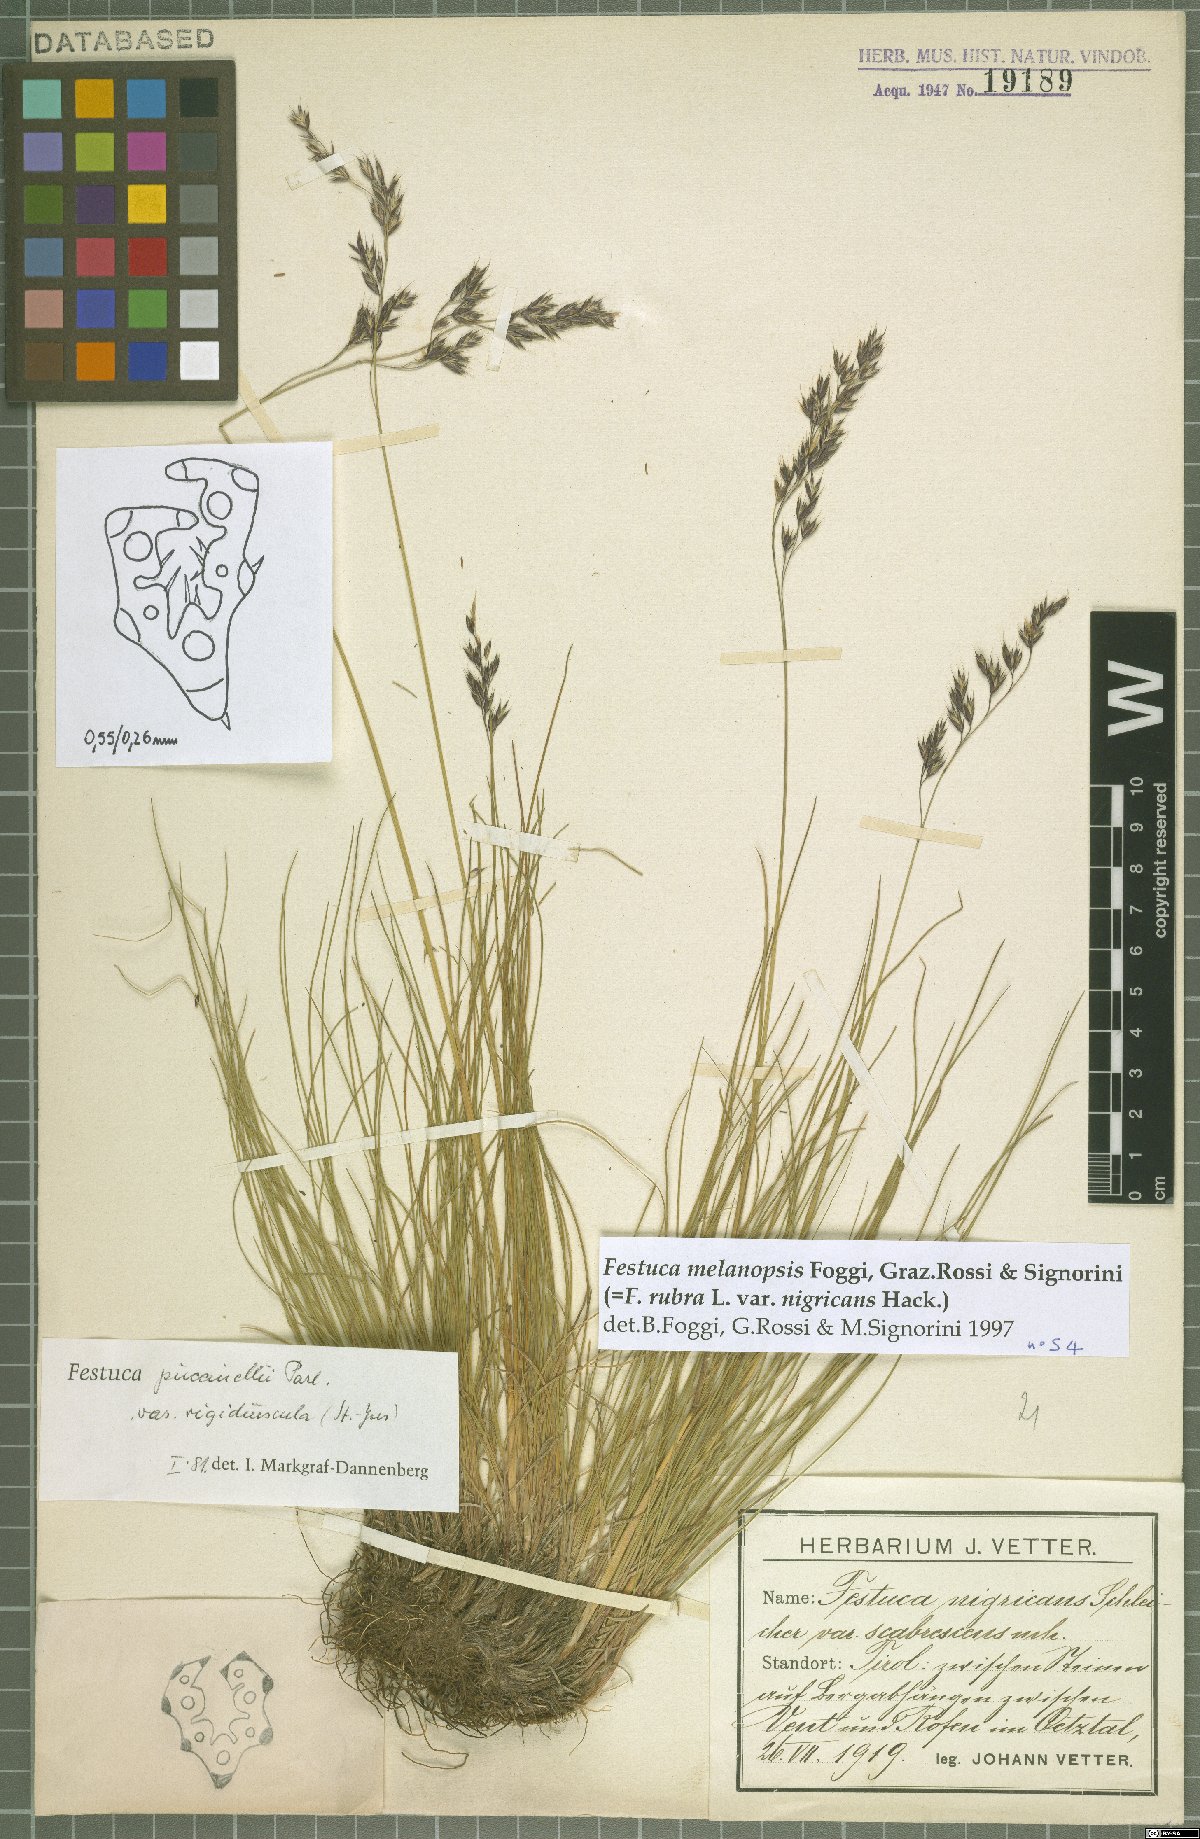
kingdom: Plantae
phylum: Tracheophyta
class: Liliopsida
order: Poales
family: Poaceae
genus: Festuca
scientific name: Festuca nigrescens
